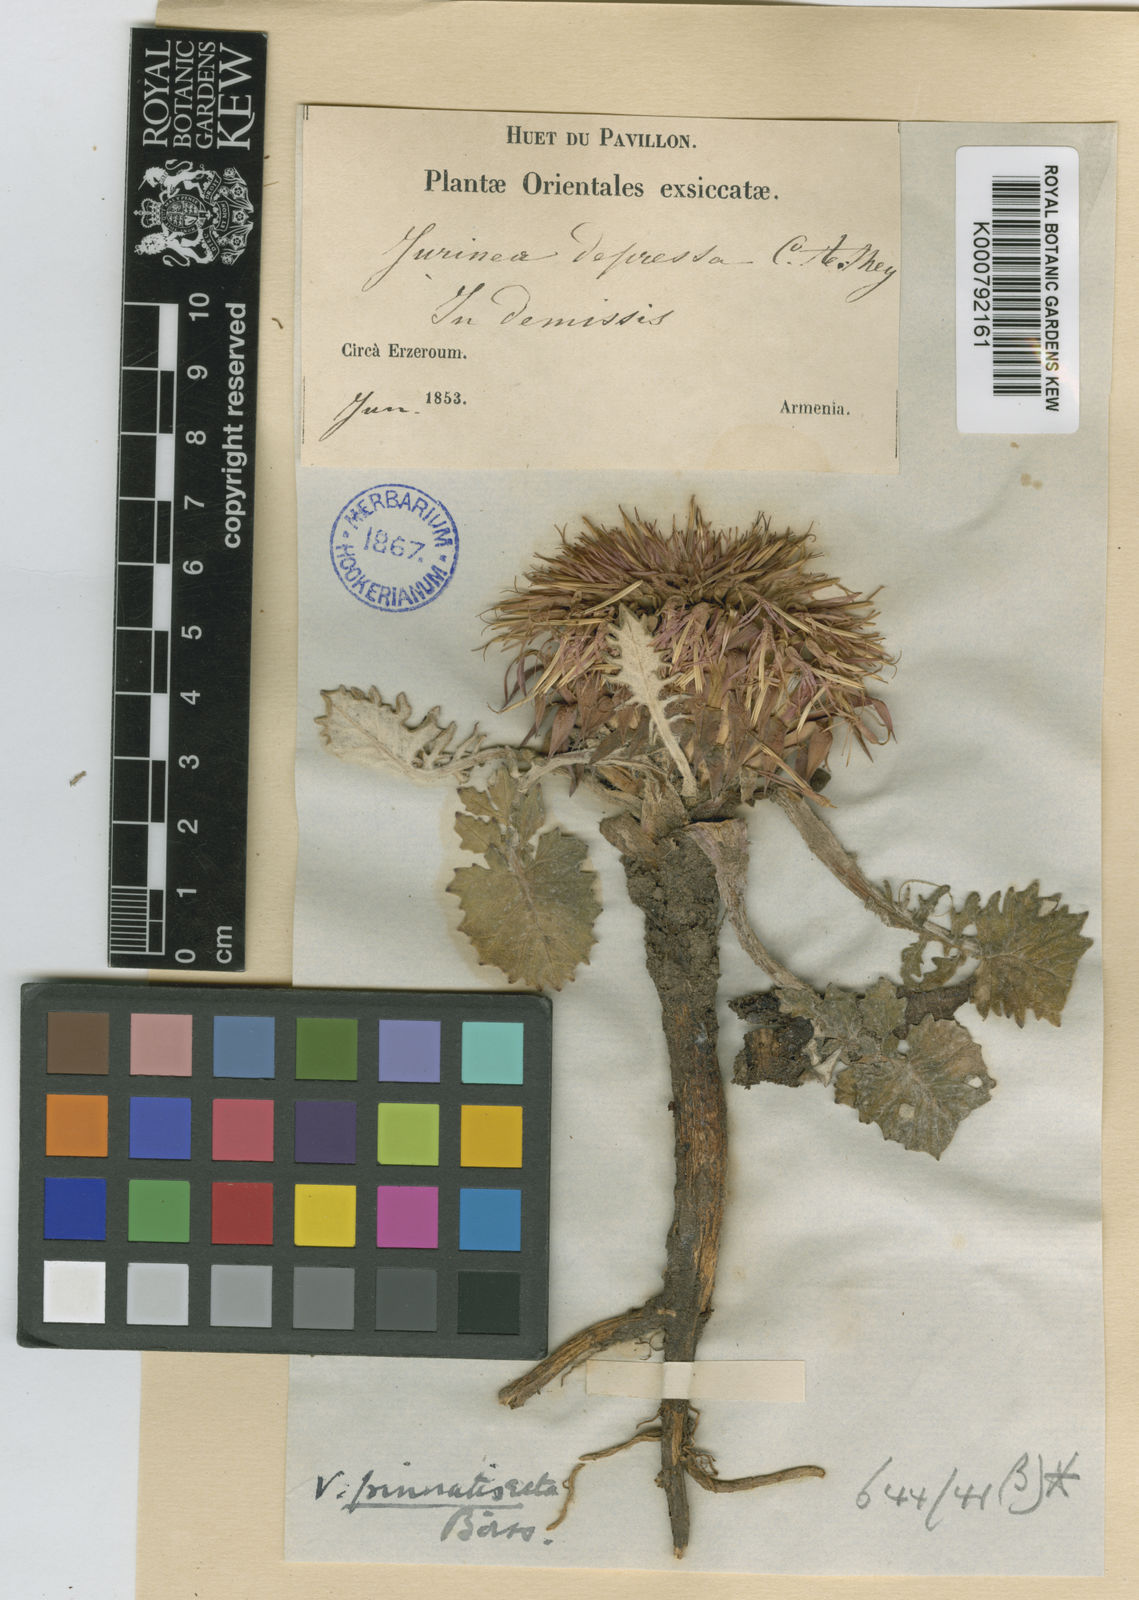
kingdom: Plantae
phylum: Tracheophyta
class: Magnoliopsida
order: Asterales
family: Asteraceae
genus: Jurinea
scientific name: Jurinea moschus
